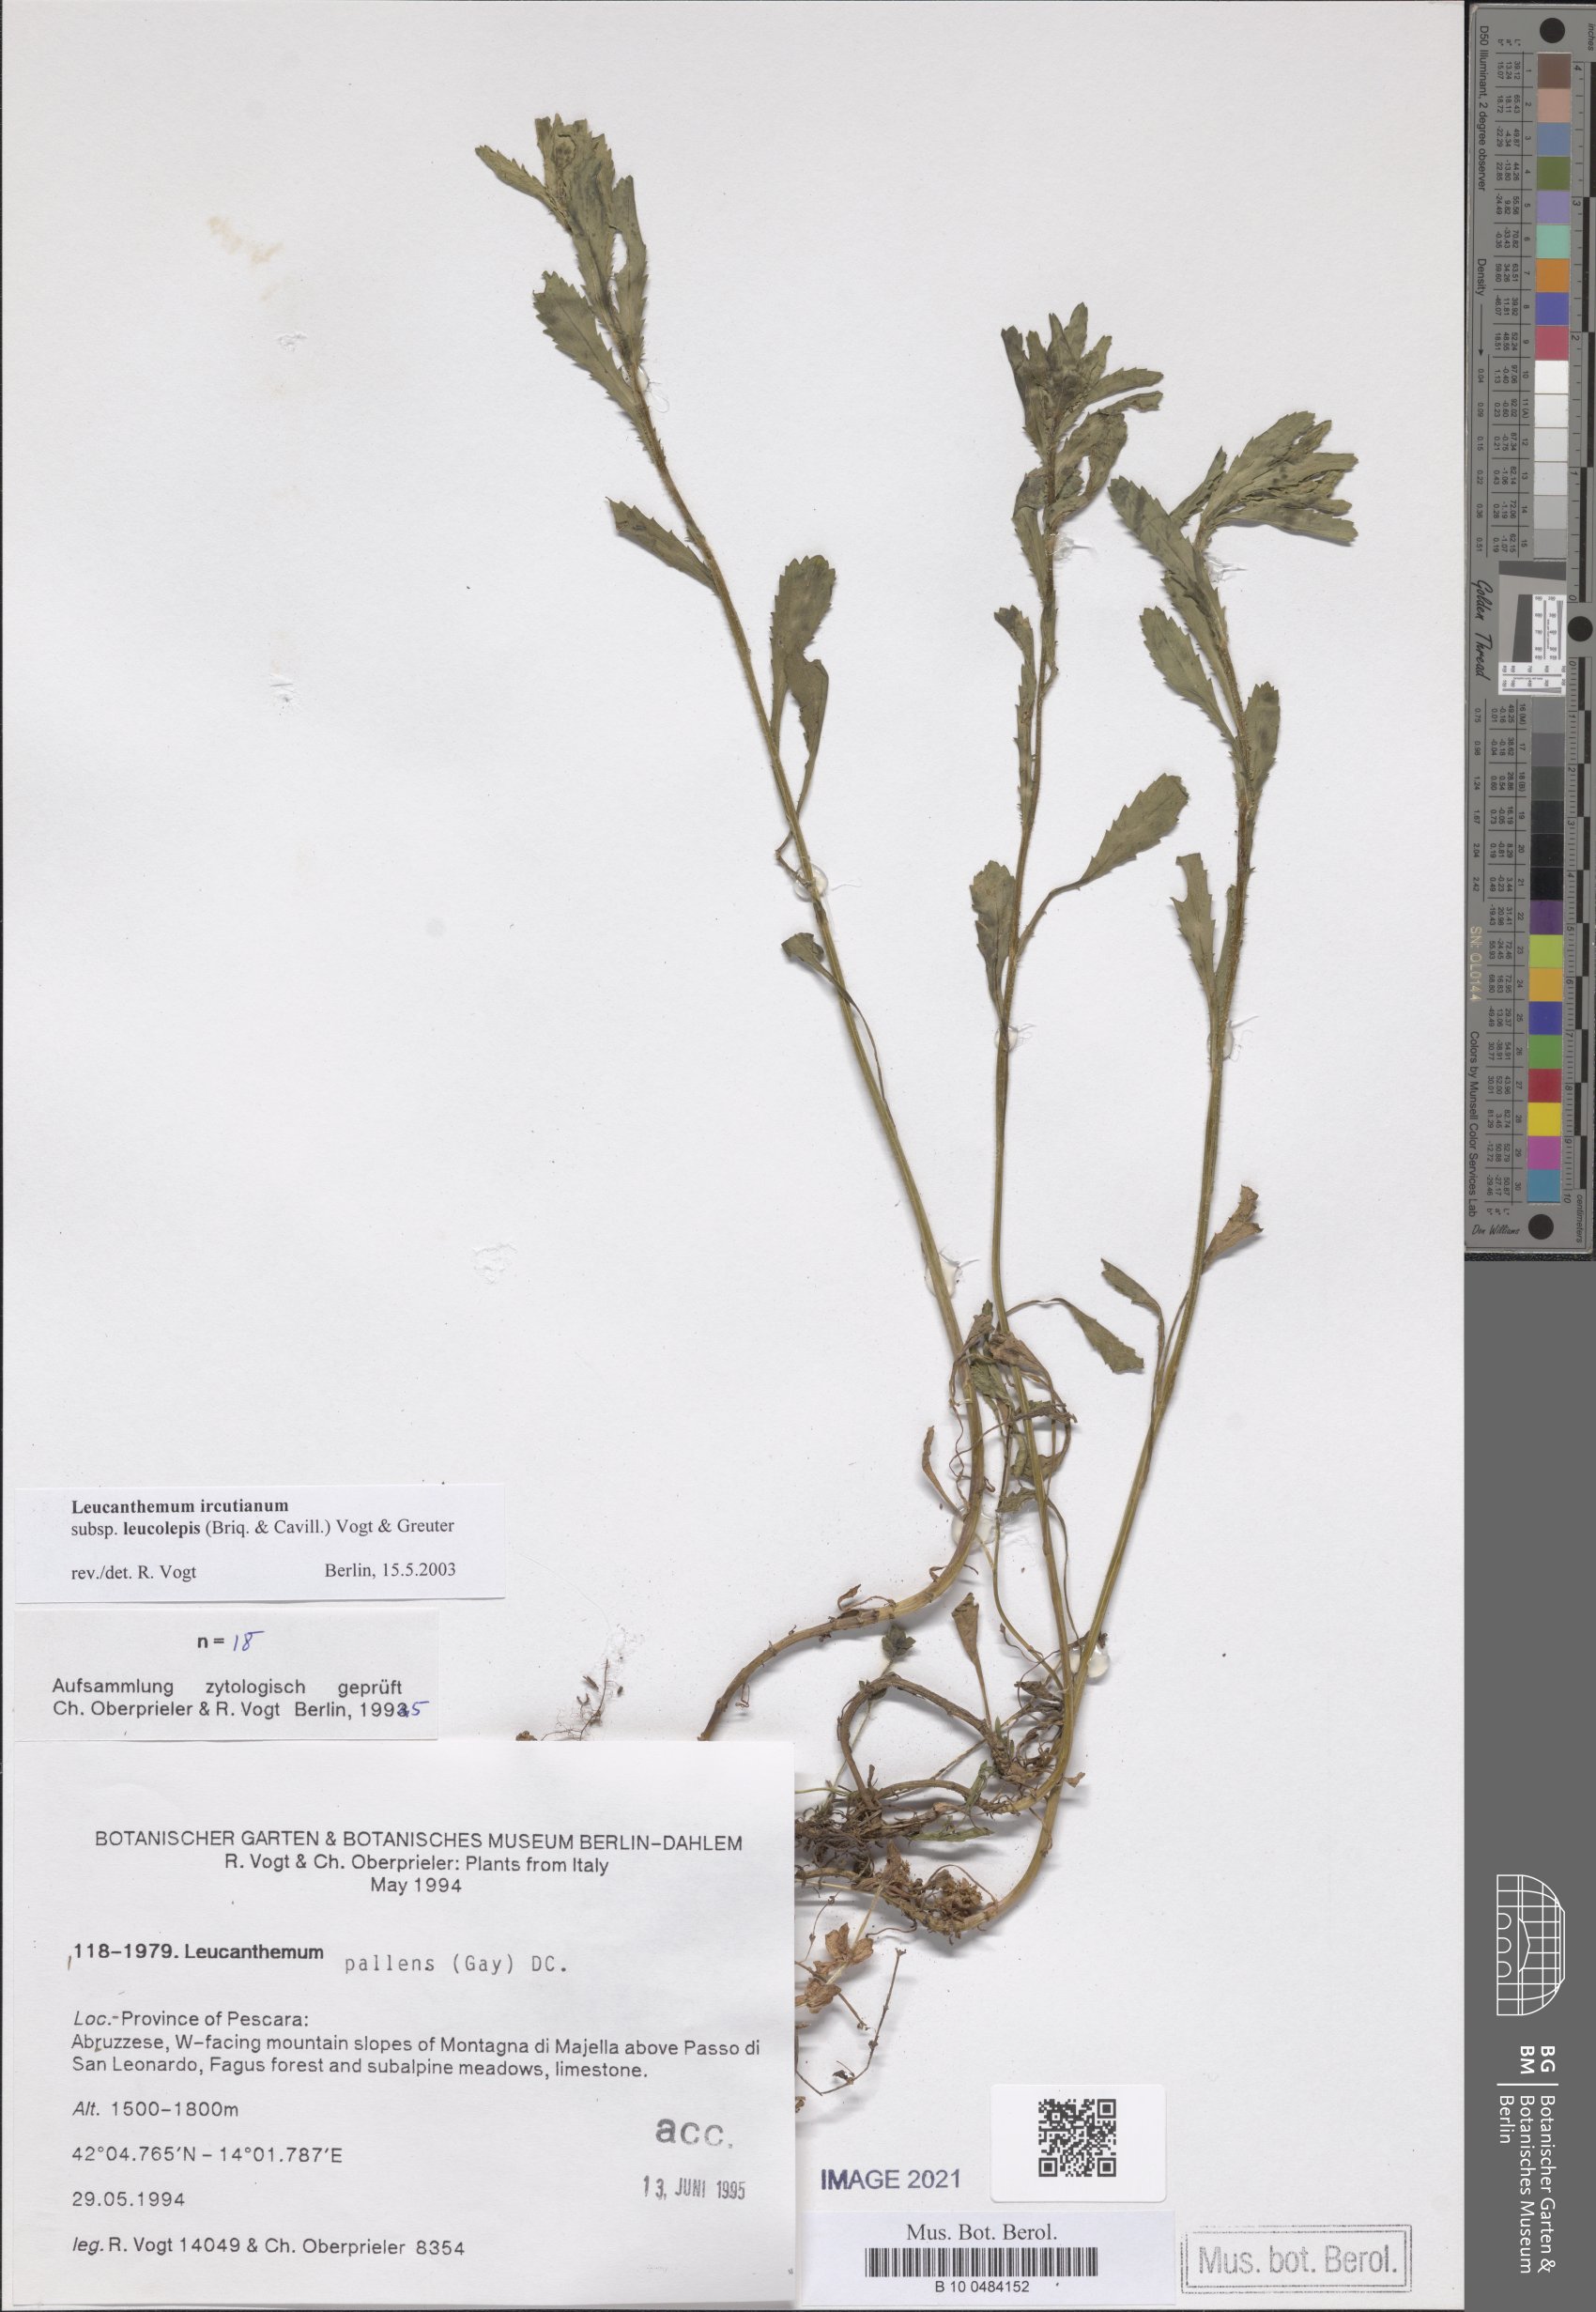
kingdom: Plantae
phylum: Tracheophyta
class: Magnoliopsida
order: Asterales
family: Asteraceae
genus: Leucanthemum
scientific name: Leucanthemum ircutianum
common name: Daisy
